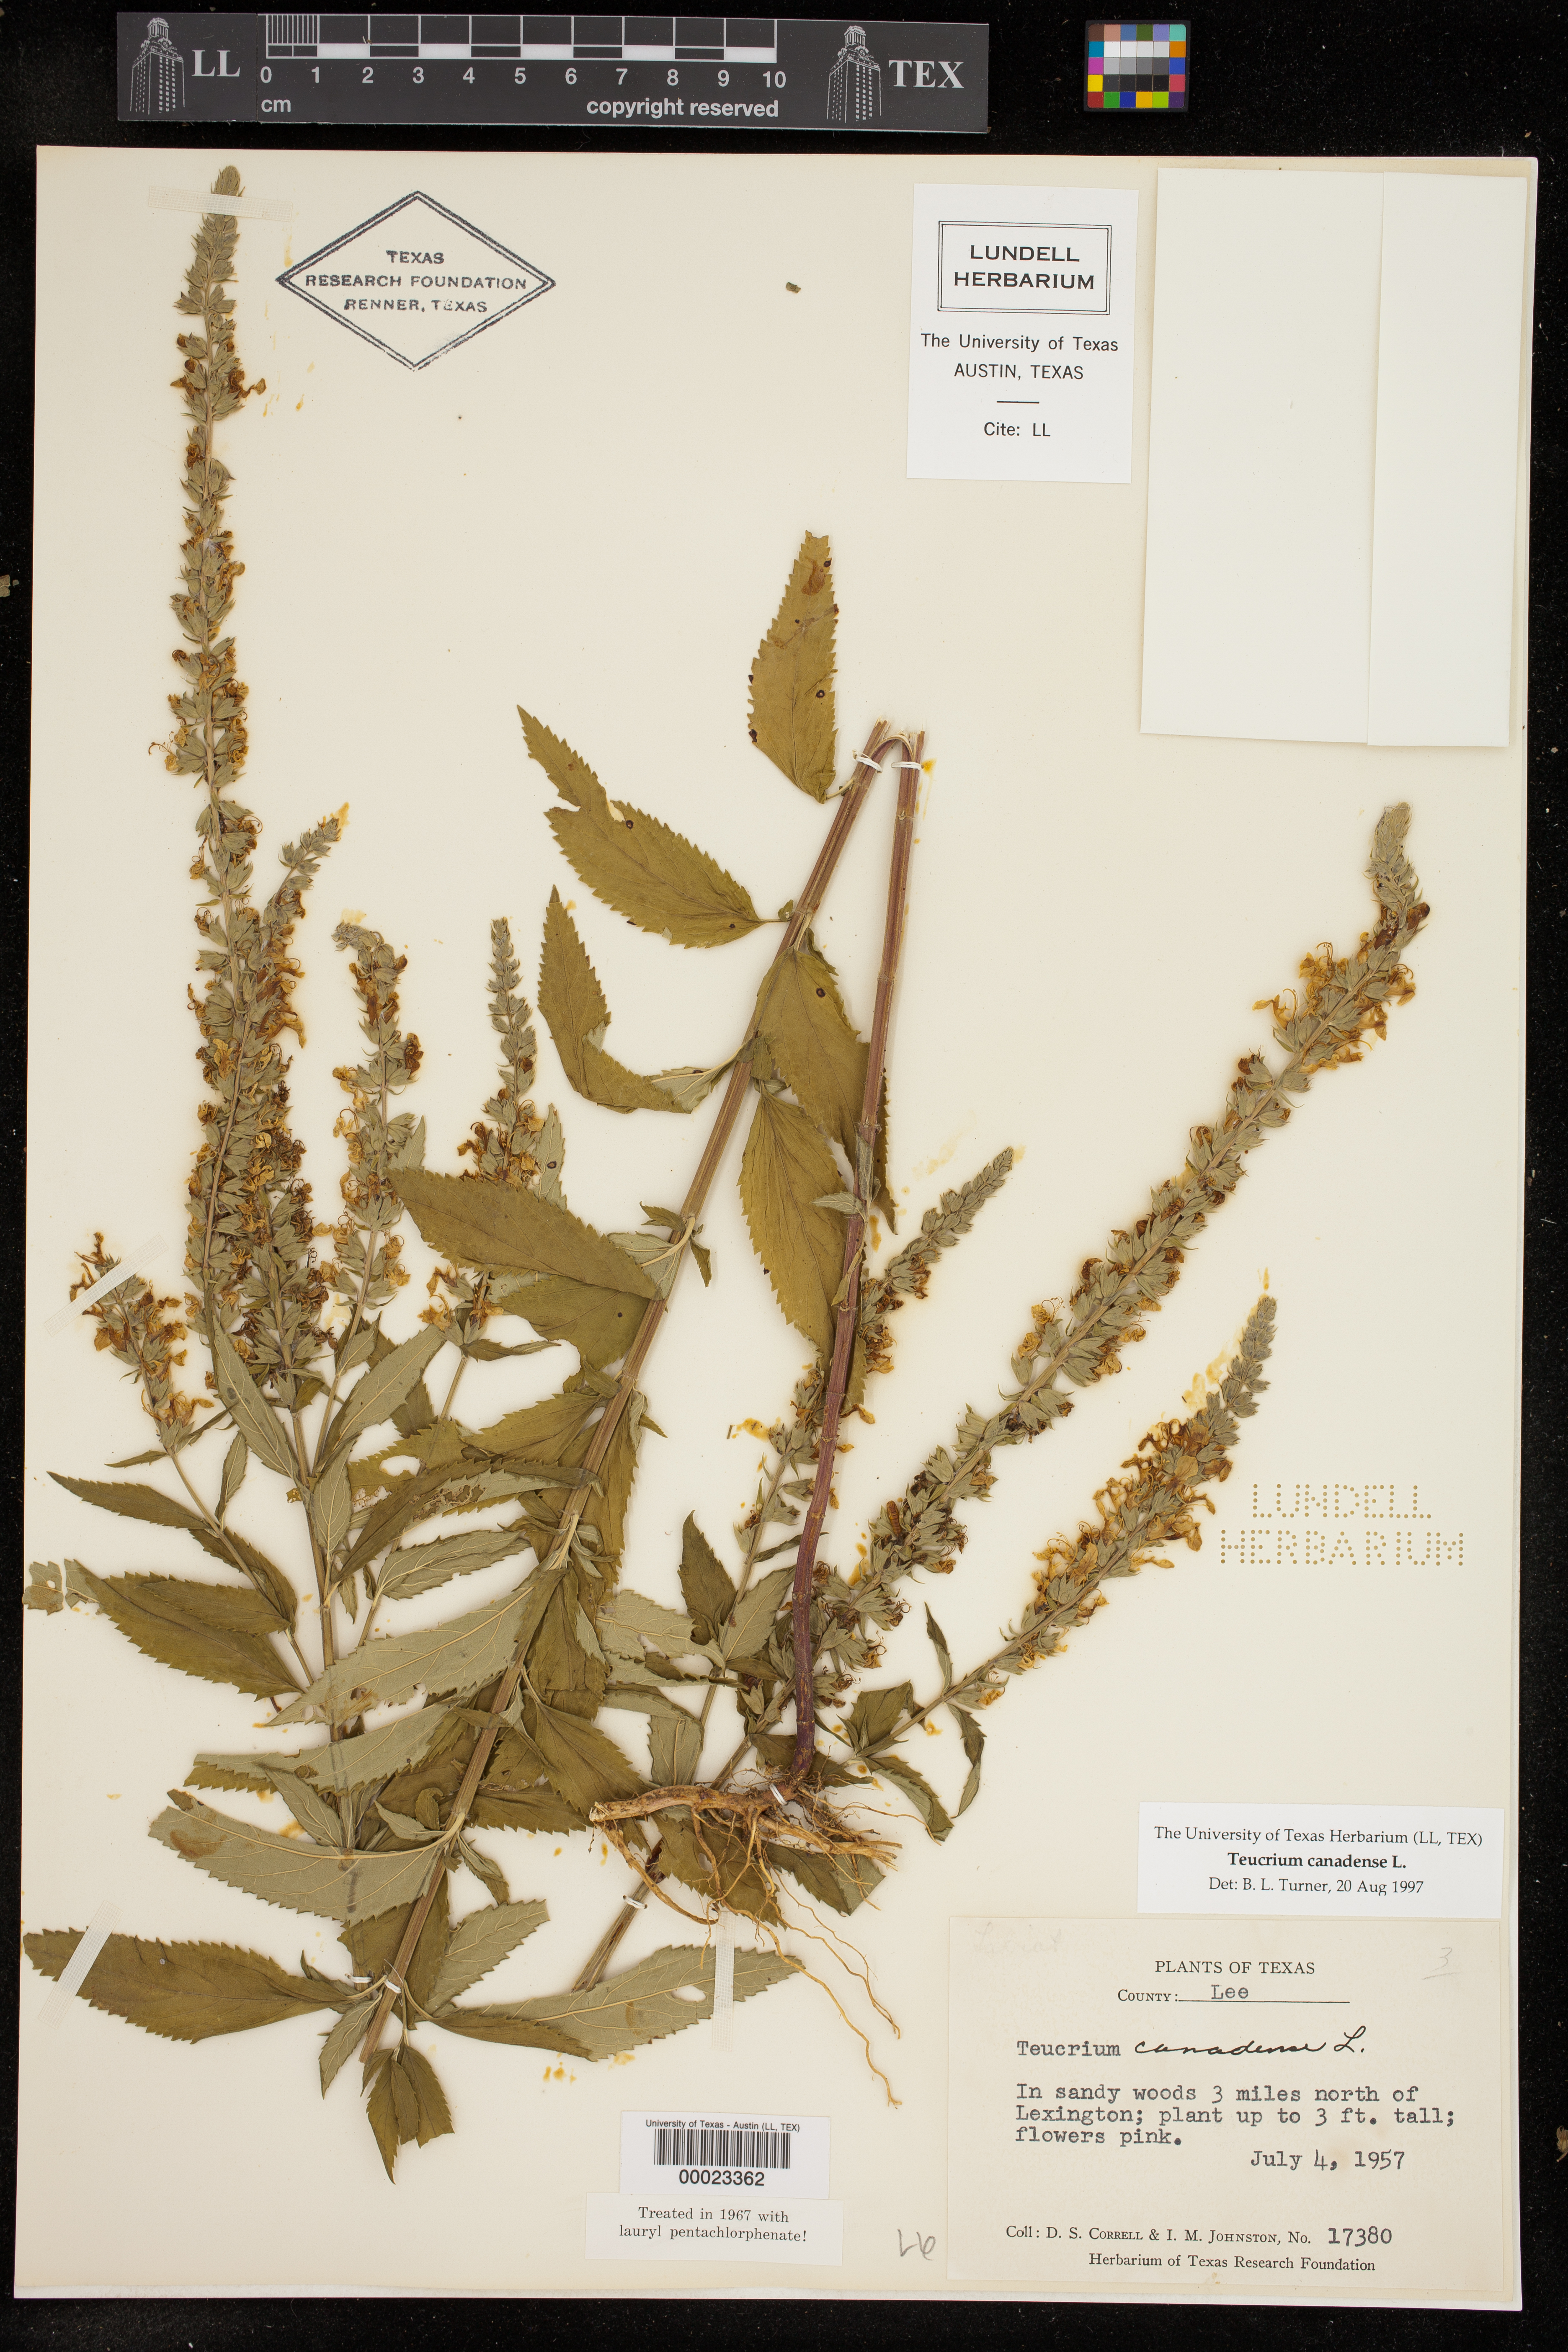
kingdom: Plantae
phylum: Tracheophyta
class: Magnoliopsida
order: Lamiales
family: Lamiaceae
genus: Teucrium
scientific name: Teucrium canadense
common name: American germander
